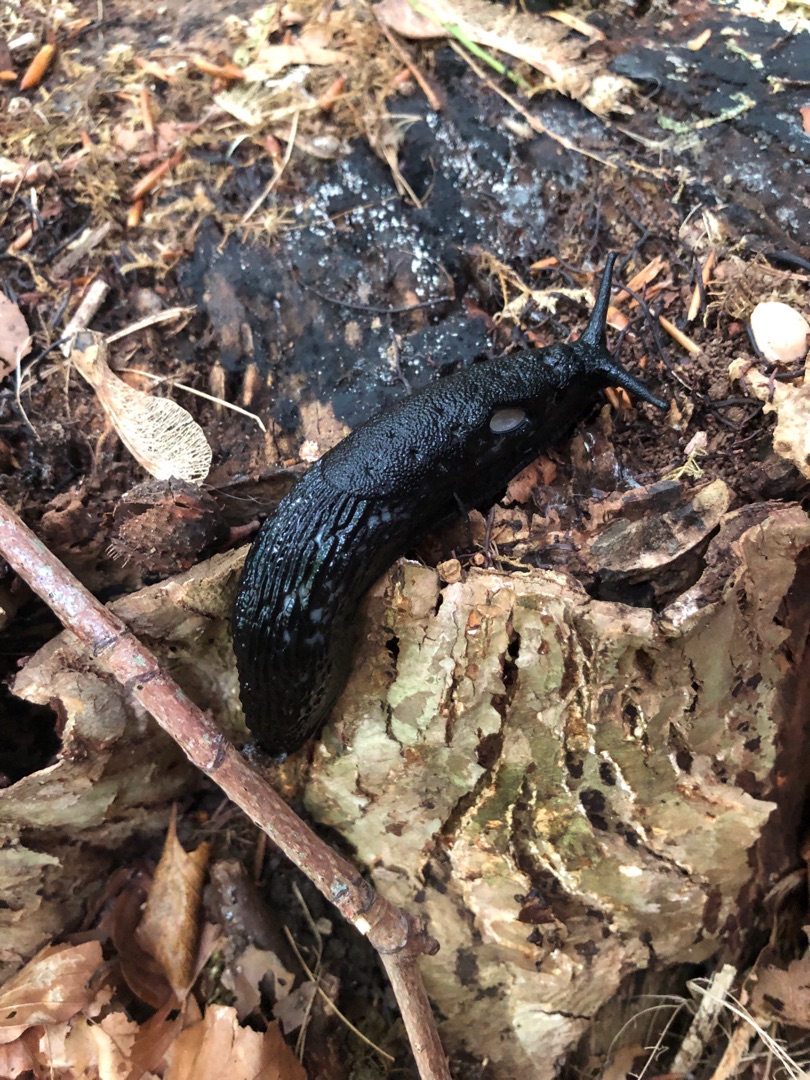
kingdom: Animalia
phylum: Mollusca
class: Gastropoda
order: Stylommatophora
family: Arionidae
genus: Arion
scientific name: Arion ater
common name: Sort skovsnegl
